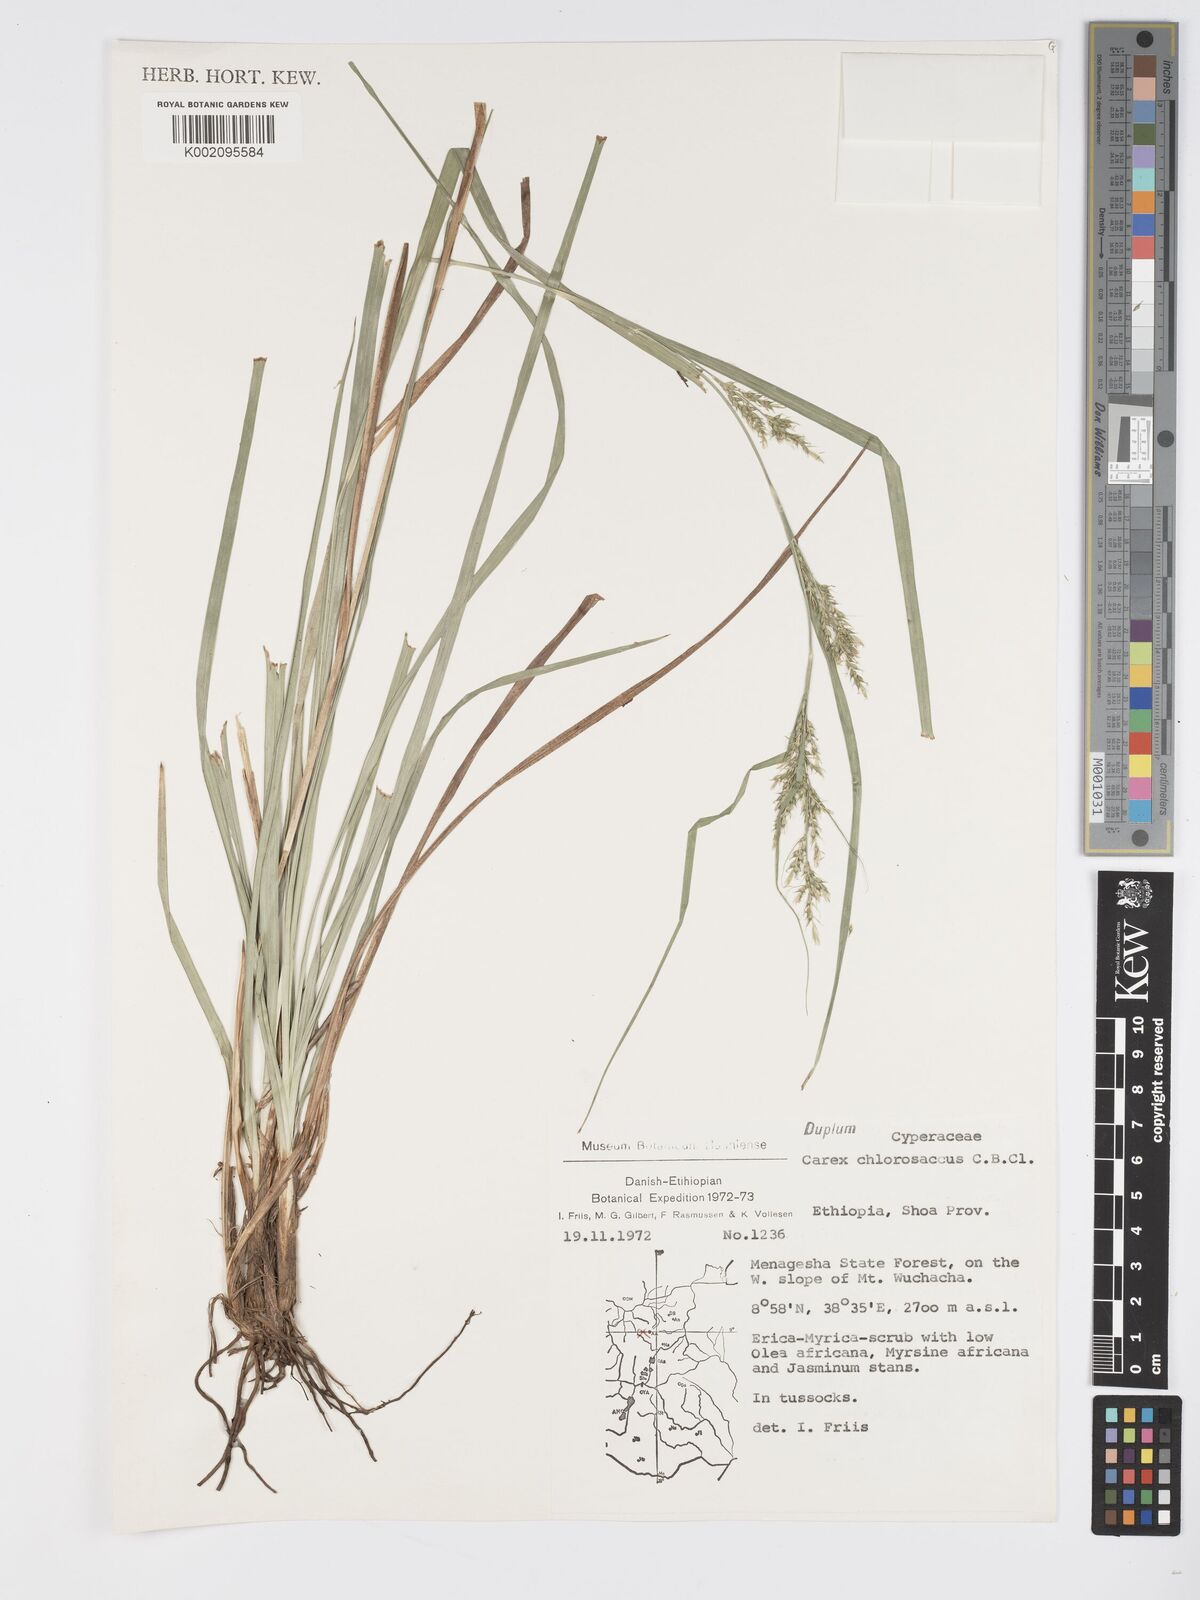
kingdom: Plantae
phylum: Tracheophyta
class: Liliopsida
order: Poales
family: Cyperaceae
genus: Carex
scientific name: Carex chlorosaccus
